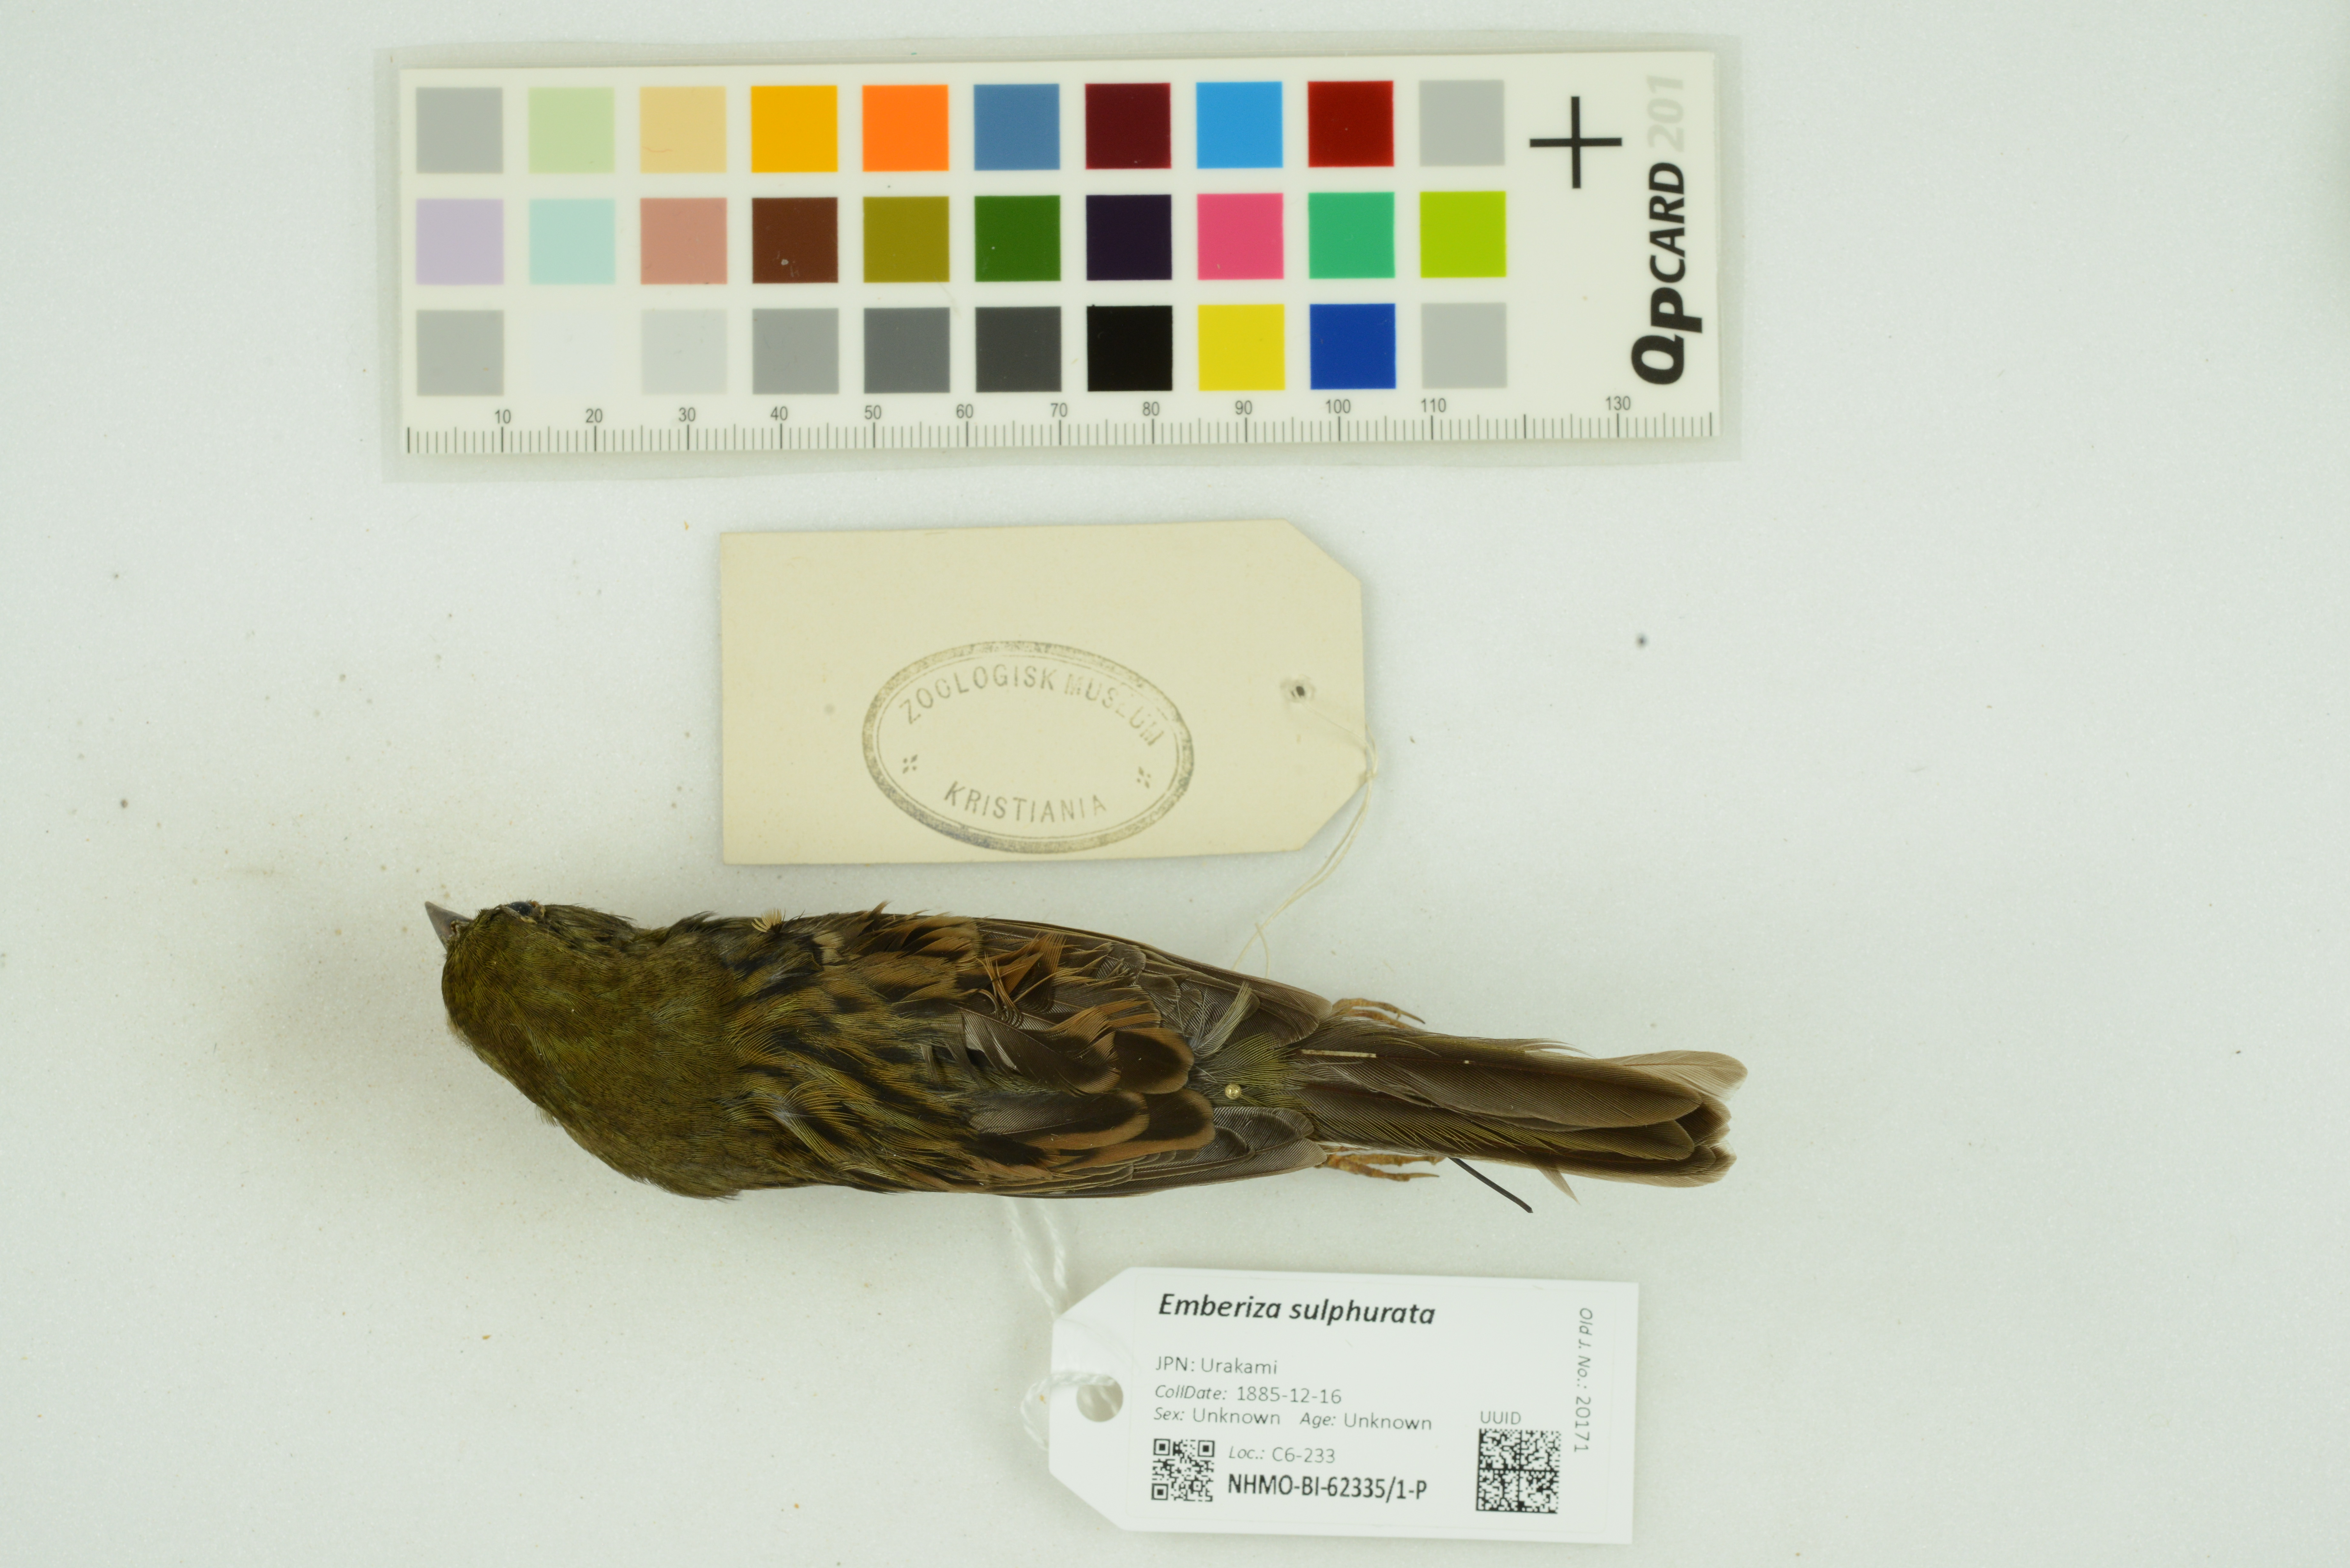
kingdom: Animalia
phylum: Chordata
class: Aves
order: Passeriformes
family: Emberizidae
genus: Emberiza
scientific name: Emberiza sulphurata
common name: Yellow bunting
